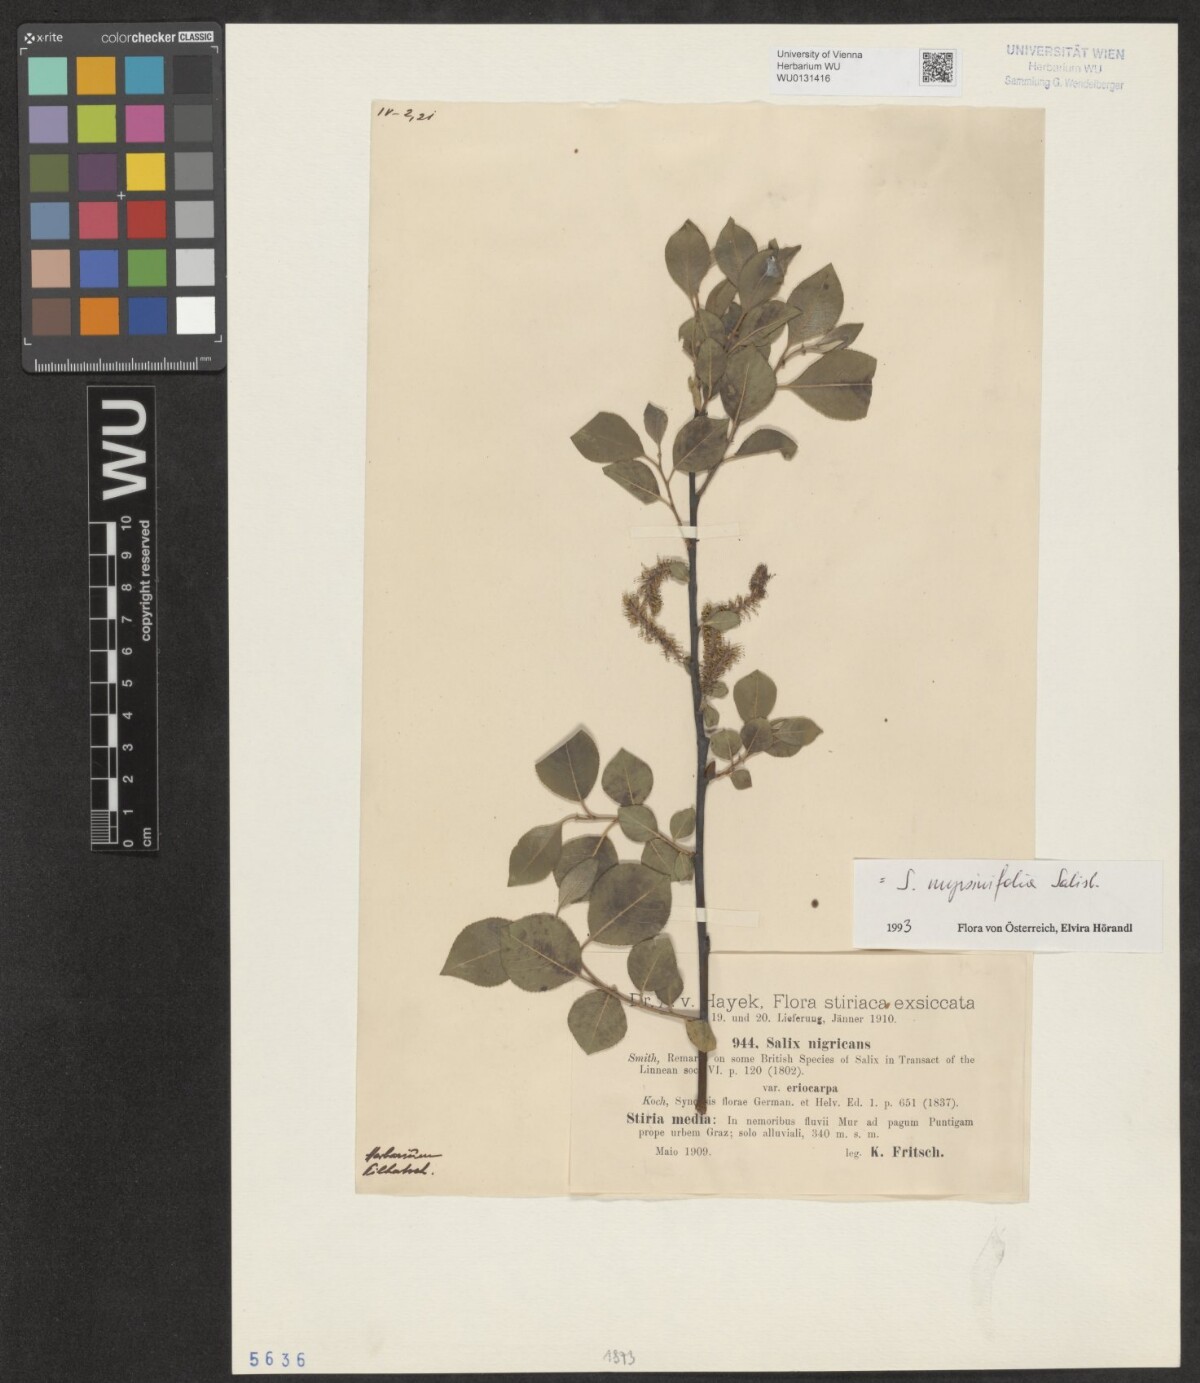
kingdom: Plantae
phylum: Tracheophyta
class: Magnoliopsida
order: Malpighiales
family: Salicaceae
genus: Salix
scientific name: Salix myrsinifolia
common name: Dark-leaved willow
